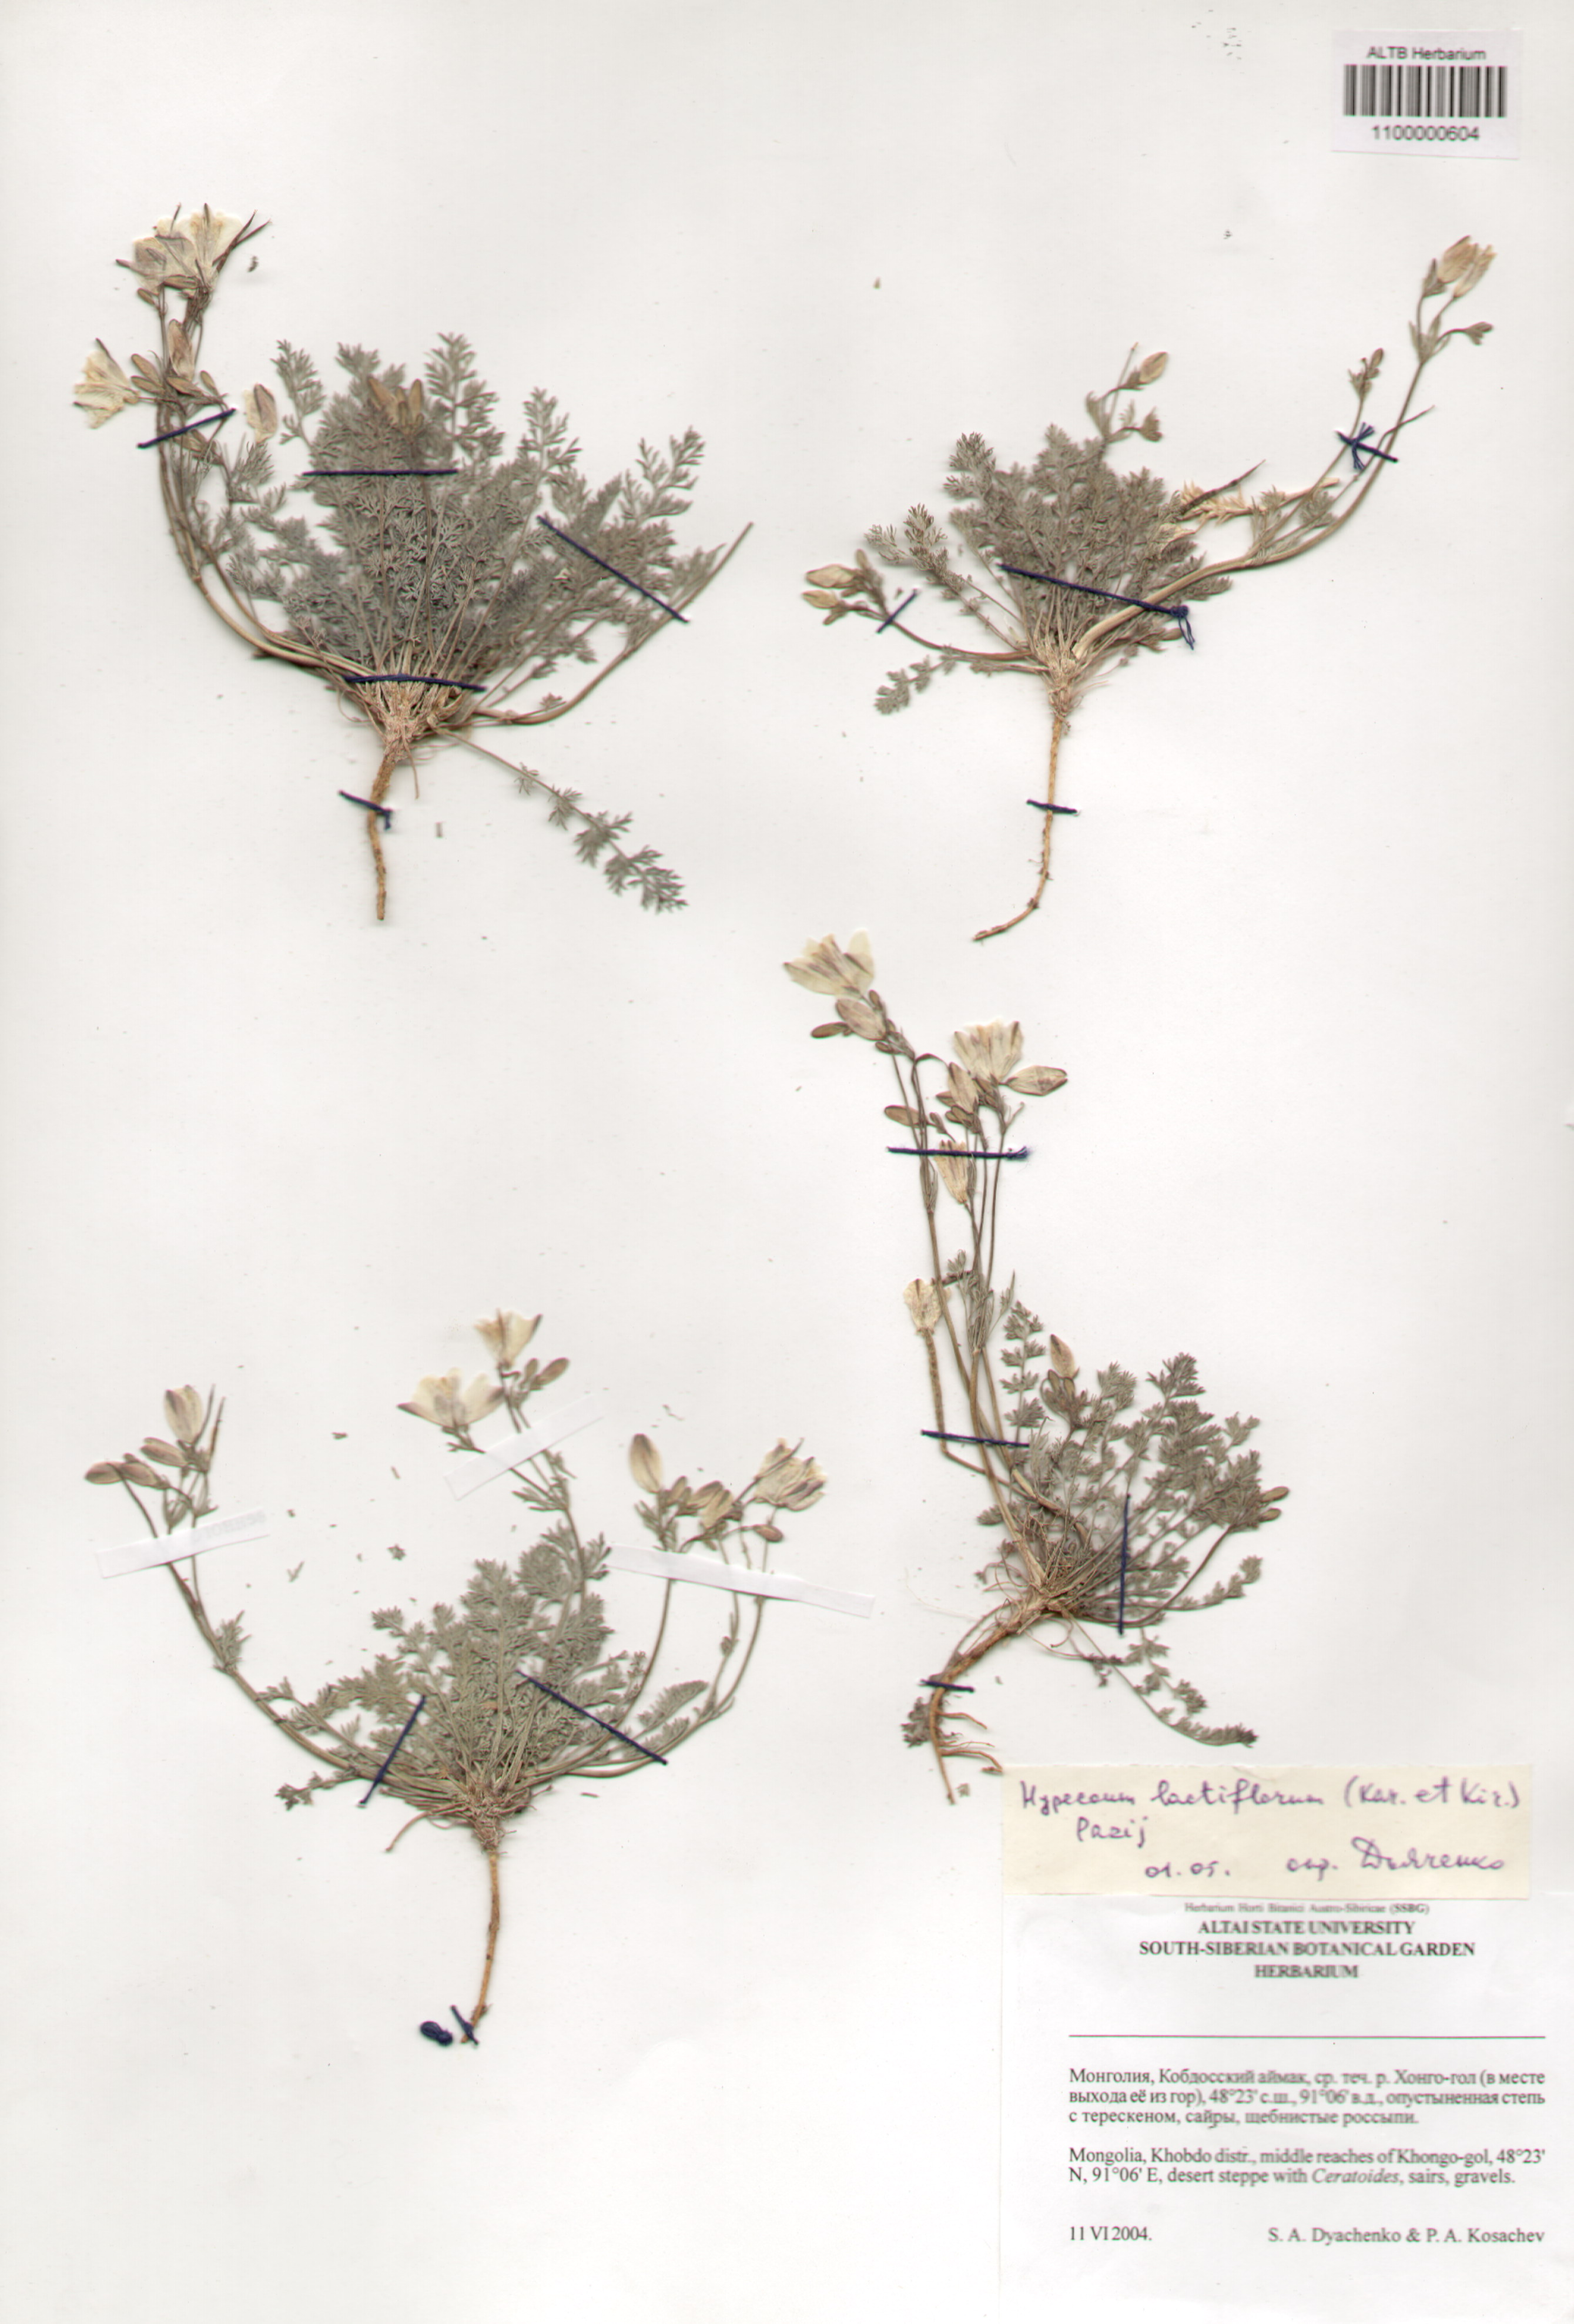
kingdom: Plantae
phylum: Tracheophyta
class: Magnoliopsida
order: Ranunculales
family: Papaveraceae
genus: Hypecoum
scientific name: Hypecoum lactiflorum
